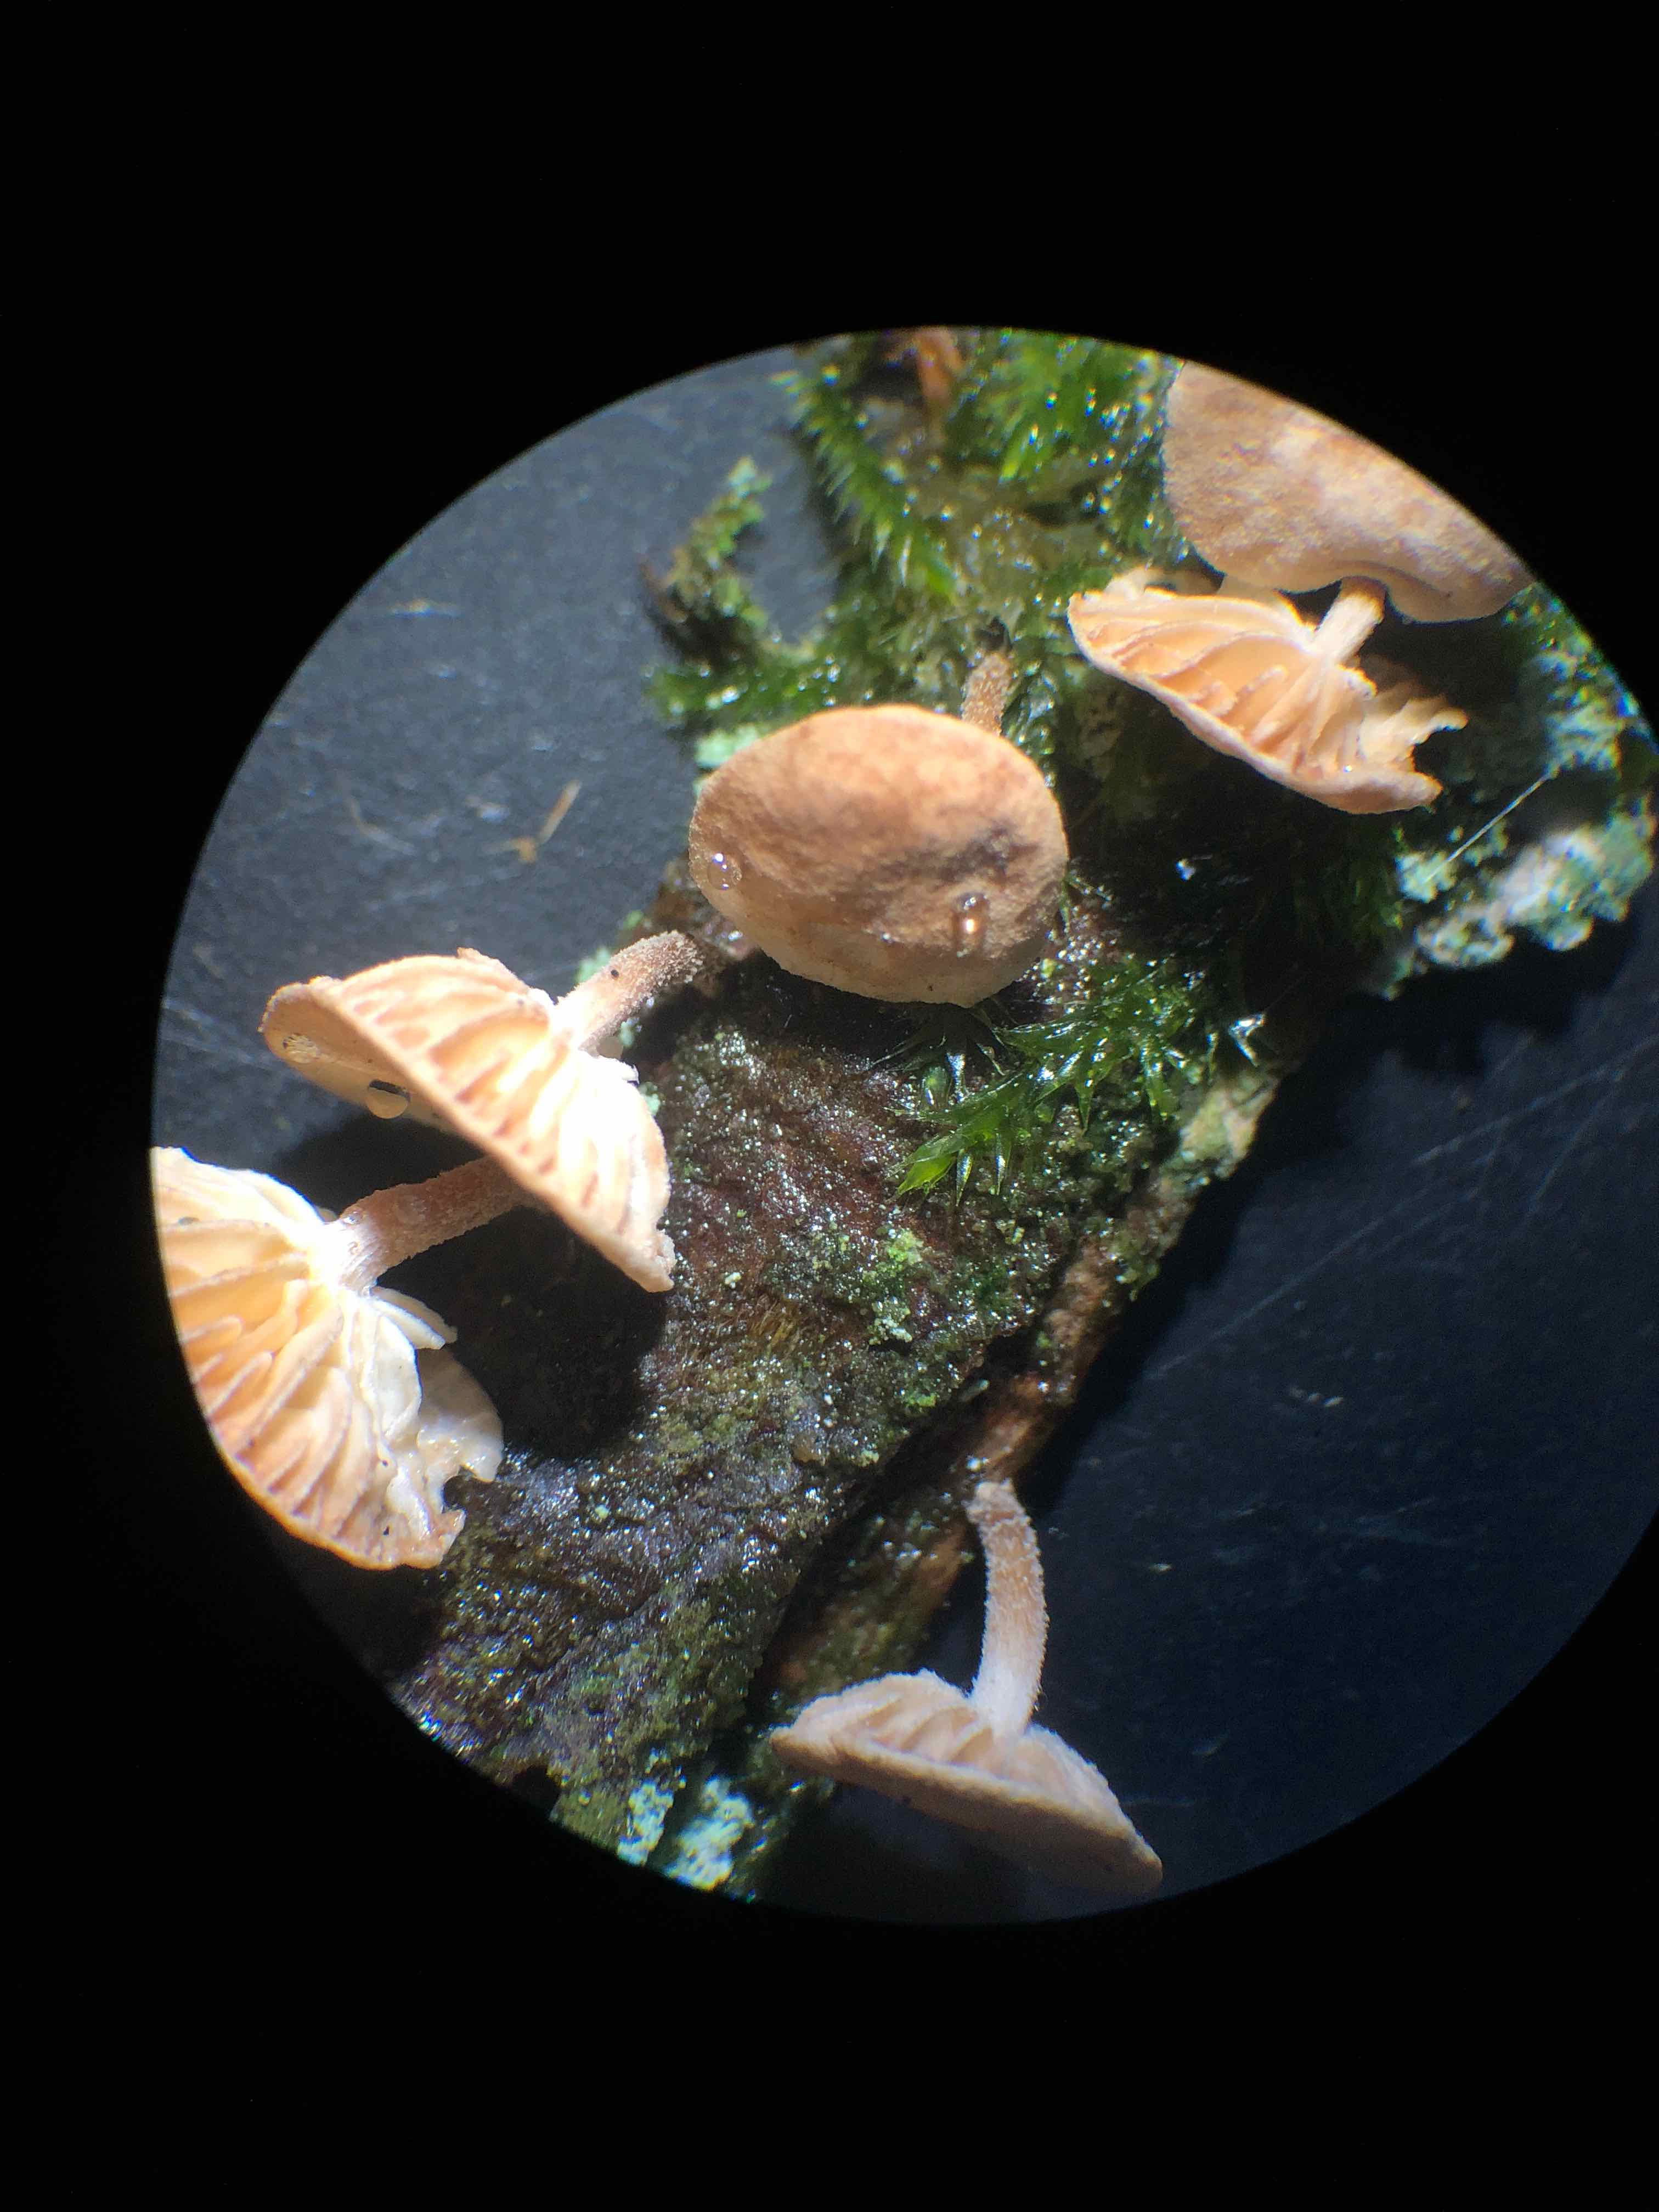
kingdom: Fungi
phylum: Basidiomycota
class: Agaricomycetes
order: Agaricales
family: Omphalotaceae
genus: Collybiopsis
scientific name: Collybiopsis ramealis
